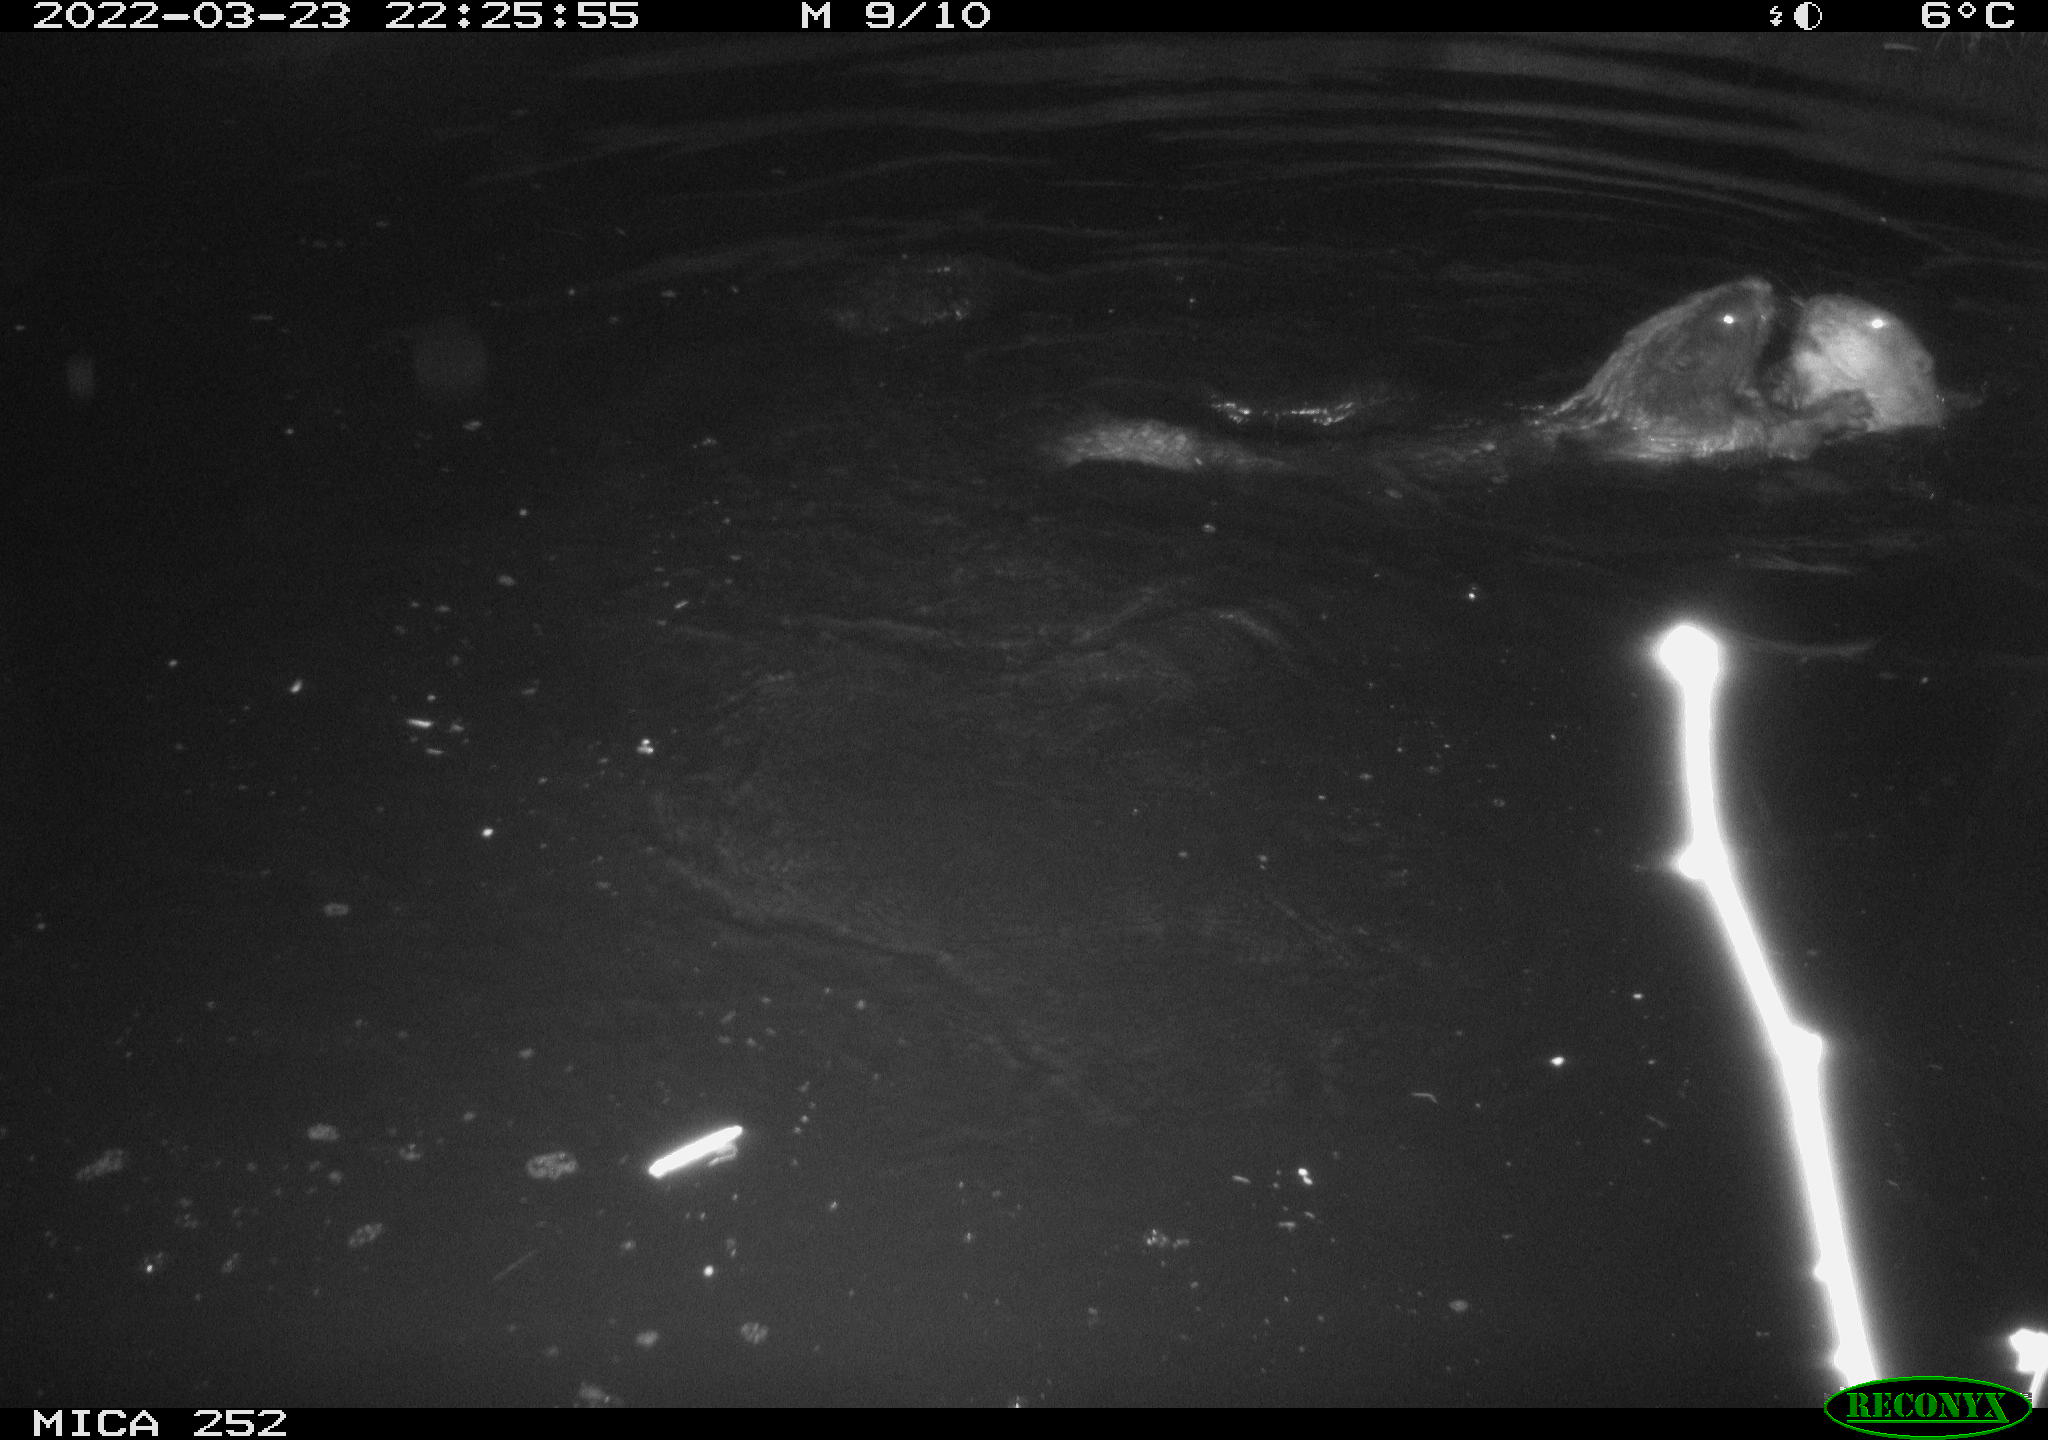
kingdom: Animalia
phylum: Chordata
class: Mammalia
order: Rodentia
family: Castoridae
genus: Castor
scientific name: Castor fiber
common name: Eurasian beaver
